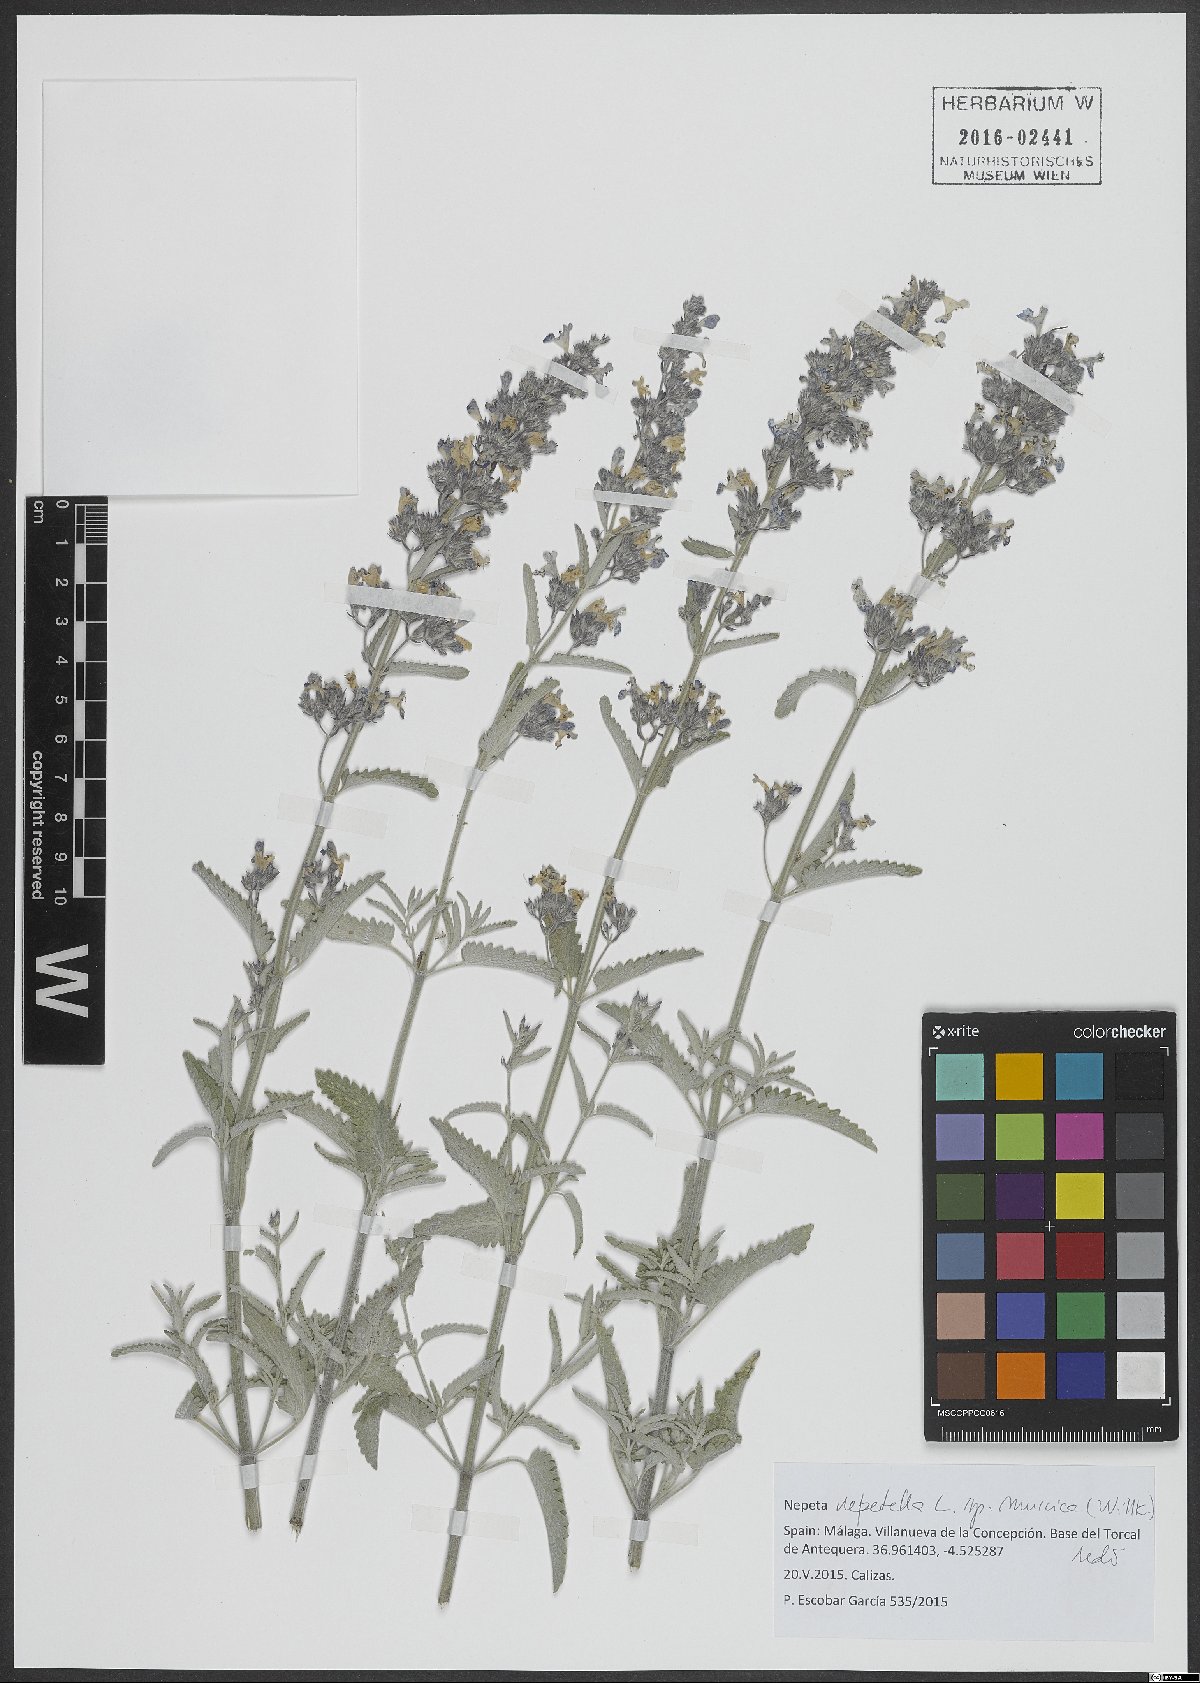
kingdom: Plantae
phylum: Tracheophyta
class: Magnoliopsida
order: Lamiales
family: Lamiaceae
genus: Nepeta
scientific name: Nepeta nepetella
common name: Lesser catmint
